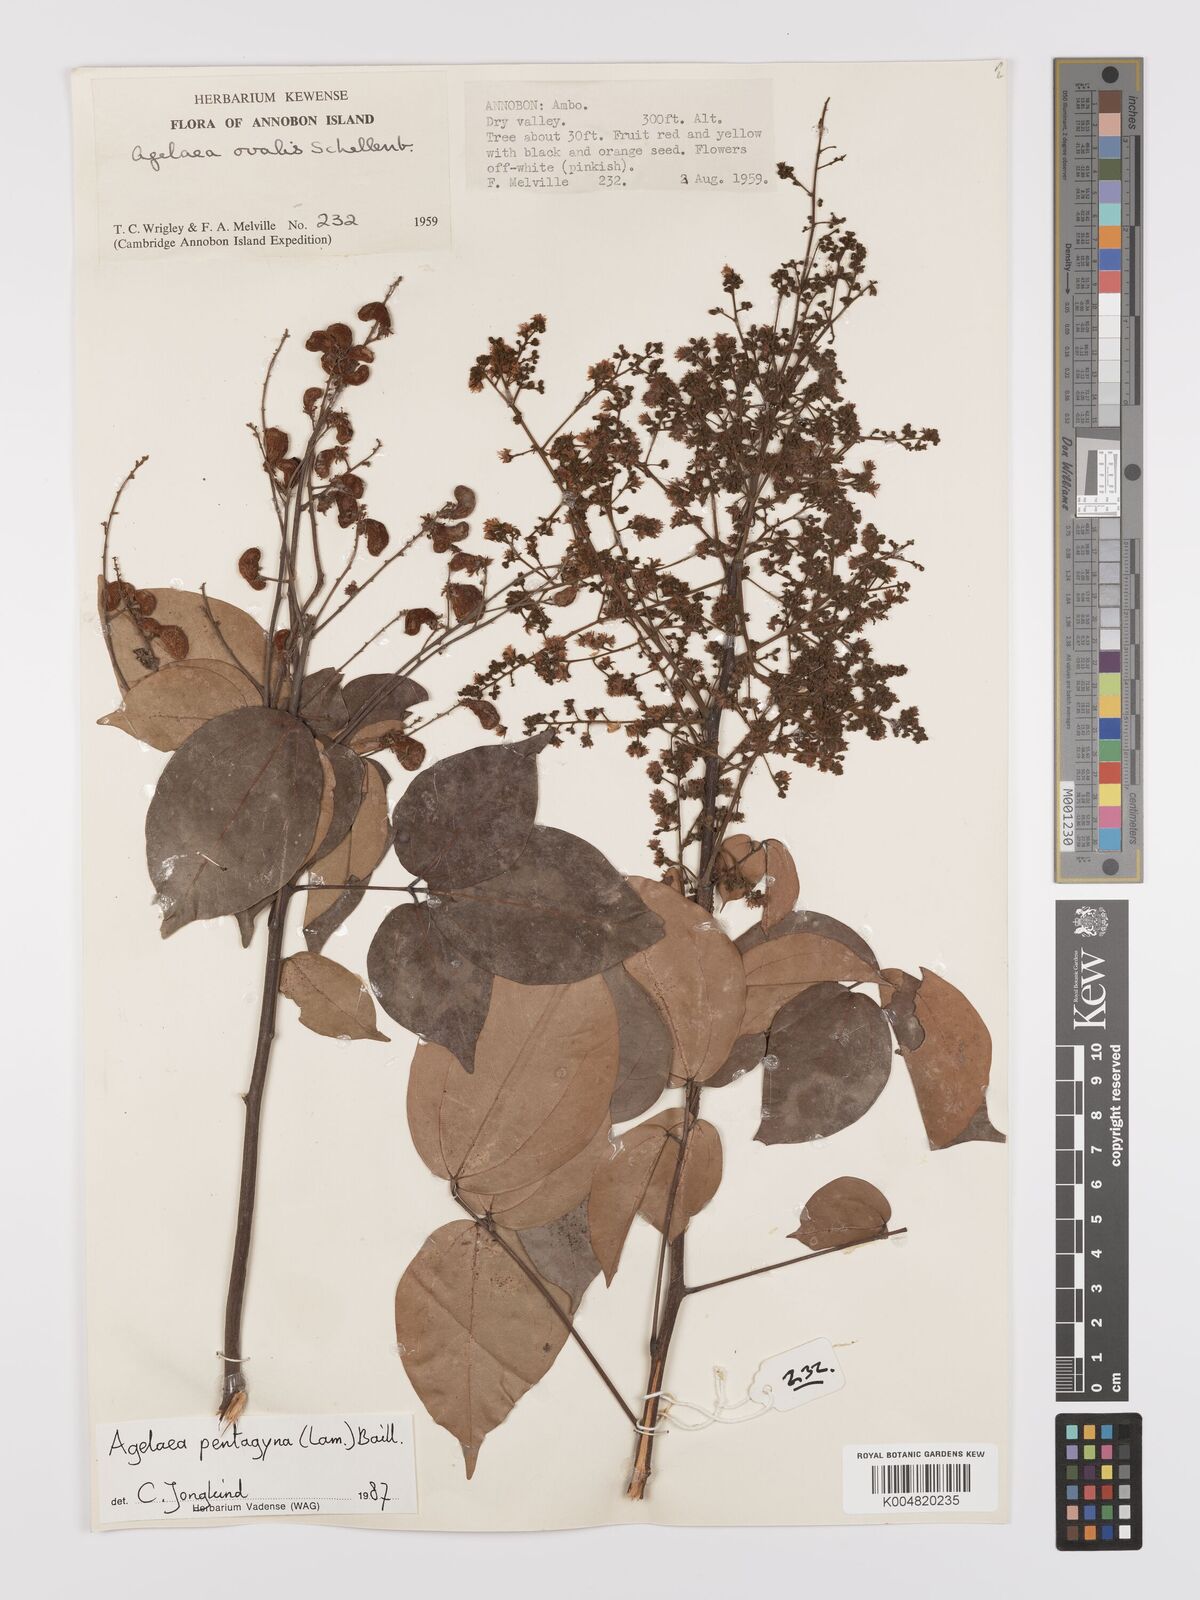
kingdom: Plantae
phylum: Tracheophyta
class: Magnoliopsida
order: Oxalidales
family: Connaraceae
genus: Agelaea
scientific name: Agelaea pentagyna
